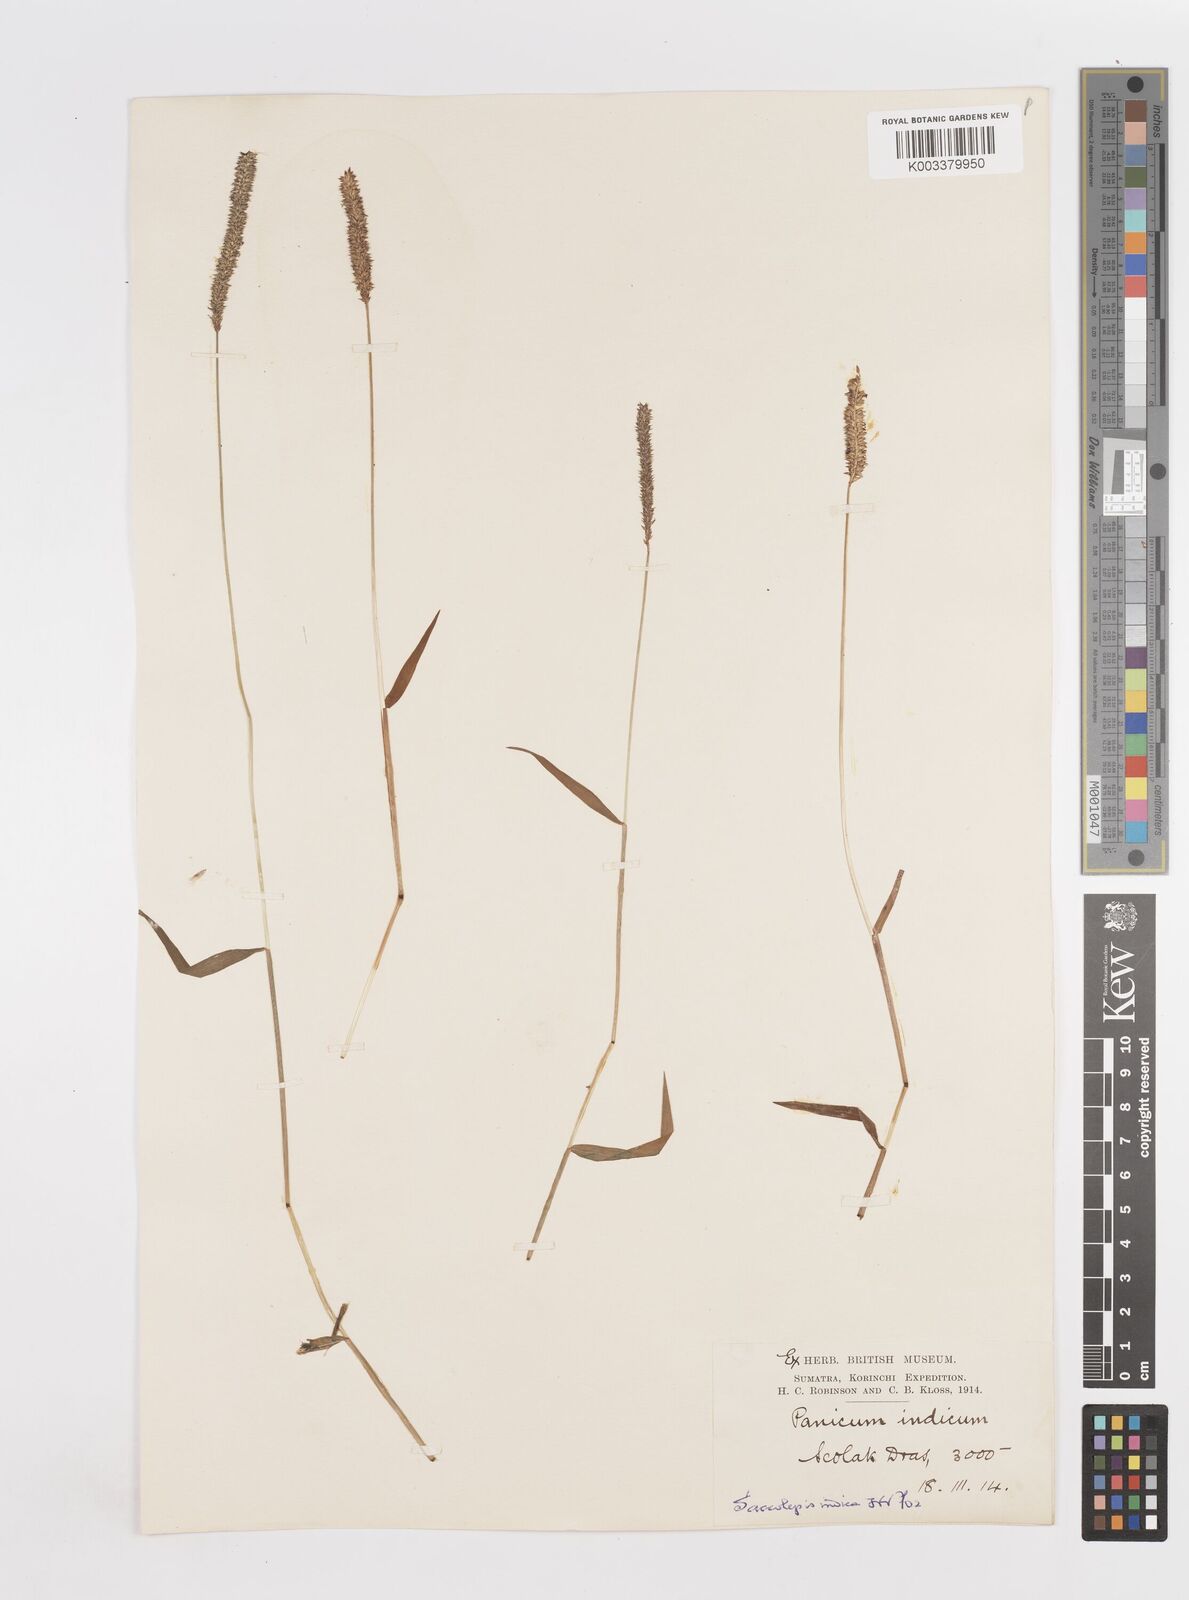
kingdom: Plantae
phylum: Tracheophyta
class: Liliopsida
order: Poales
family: Poaceae
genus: Sacciolepis
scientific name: Sacciolepis indica
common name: Glenwoodgrass
